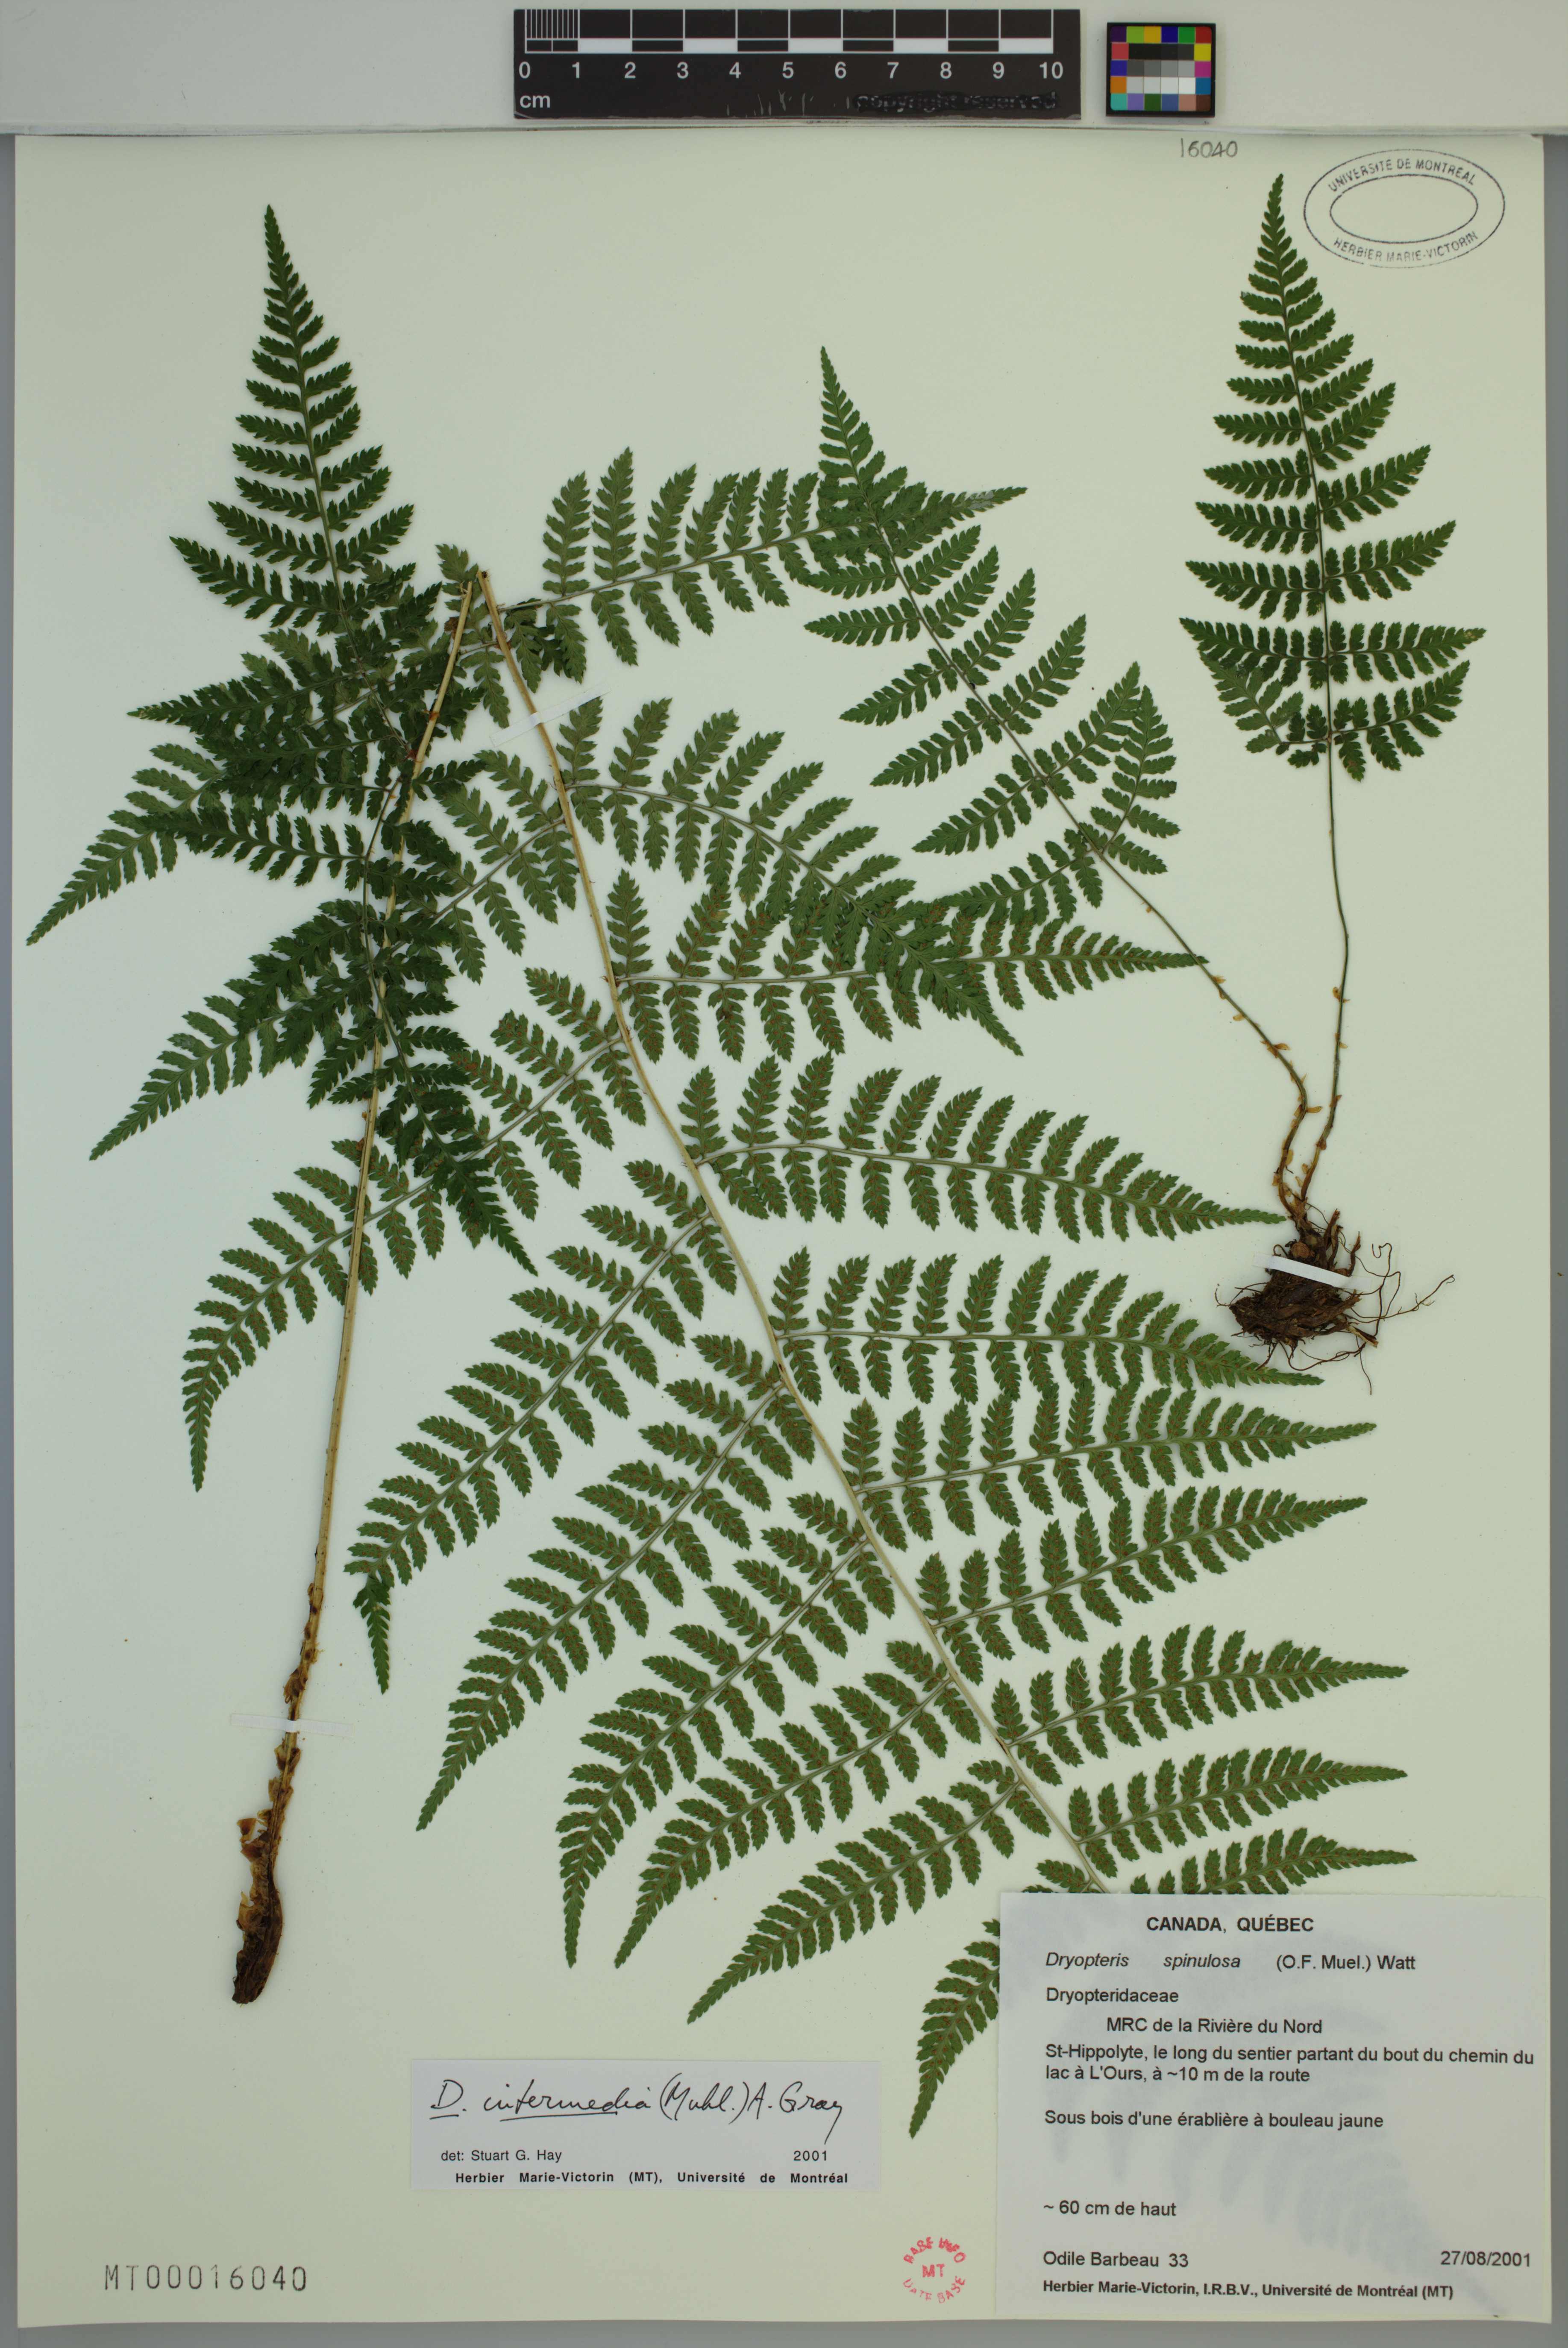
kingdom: Plantae
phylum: Tracheophyta
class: Polypodiopsida
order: Polypodiales
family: Dryopteridaceae
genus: Dryopteris
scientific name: Dryopteris intermedia
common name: Evergreen wood fern
